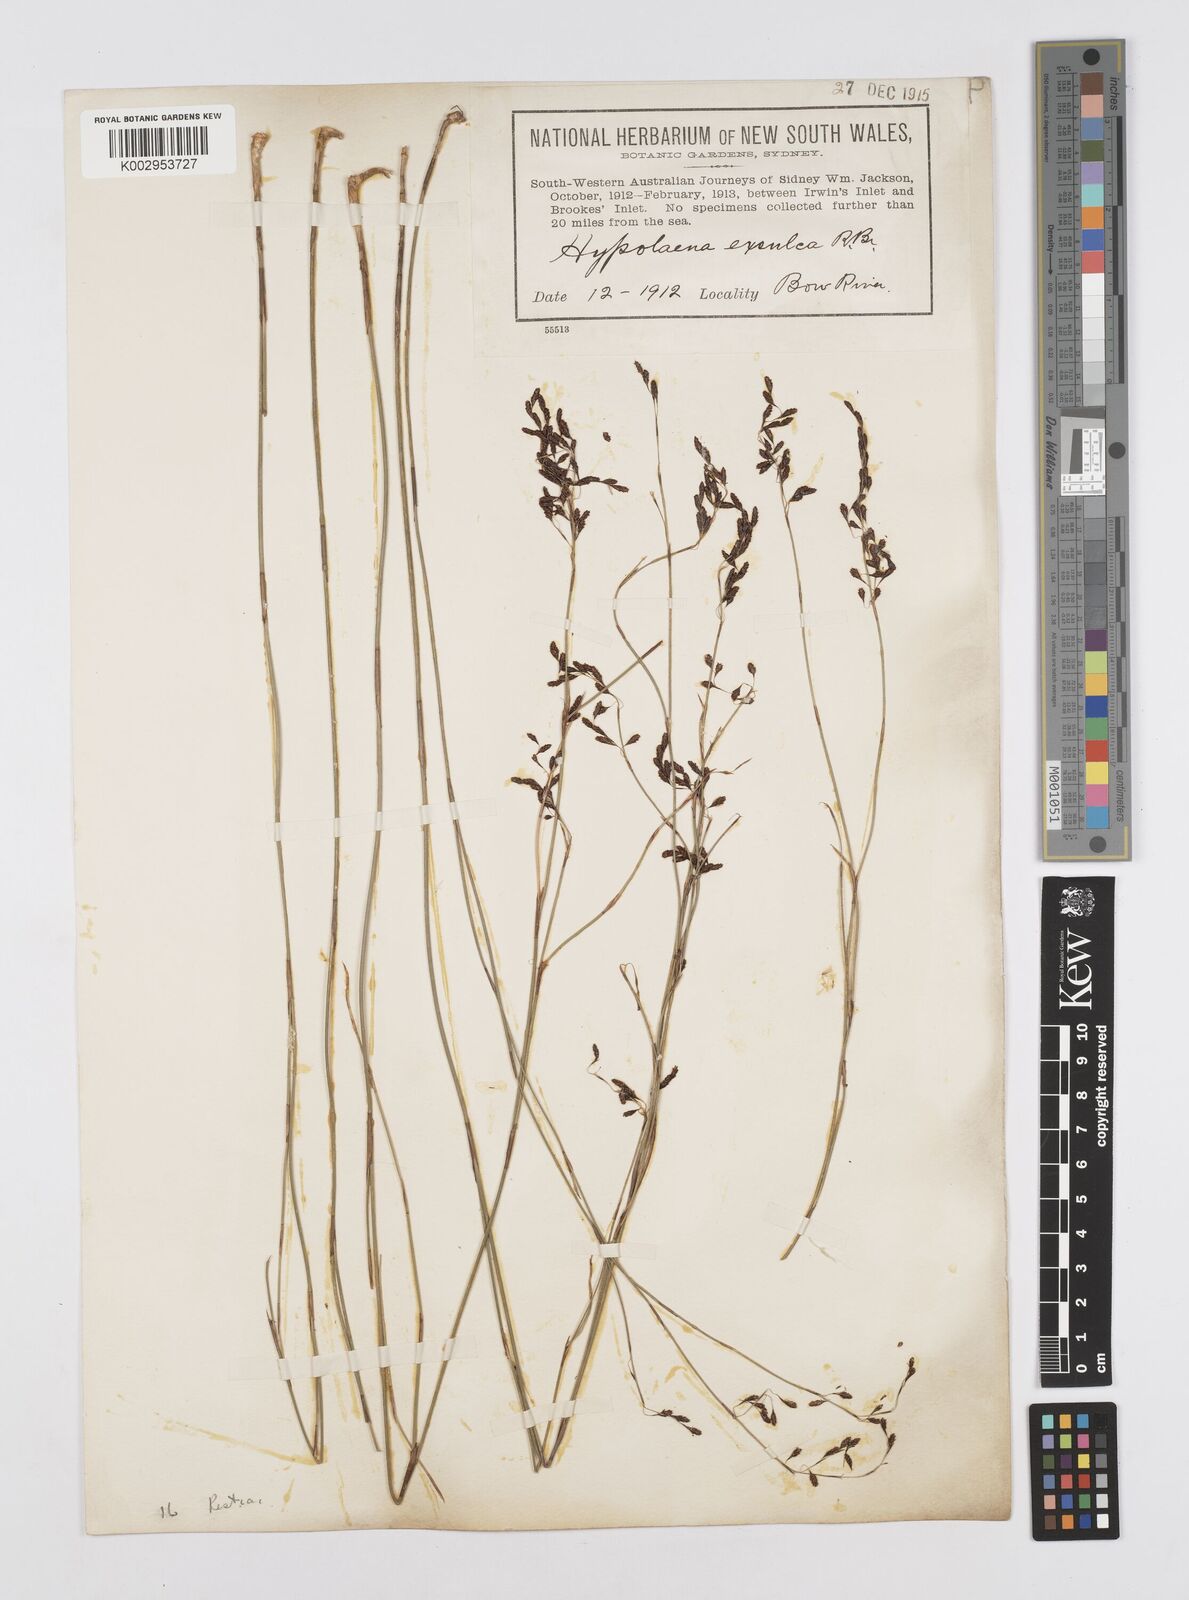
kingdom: Plantae
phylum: Tracheophyta
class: Liliopsida
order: Poales
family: Restionaceae
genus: Hypolaena
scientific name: Hypolaena exsulca
